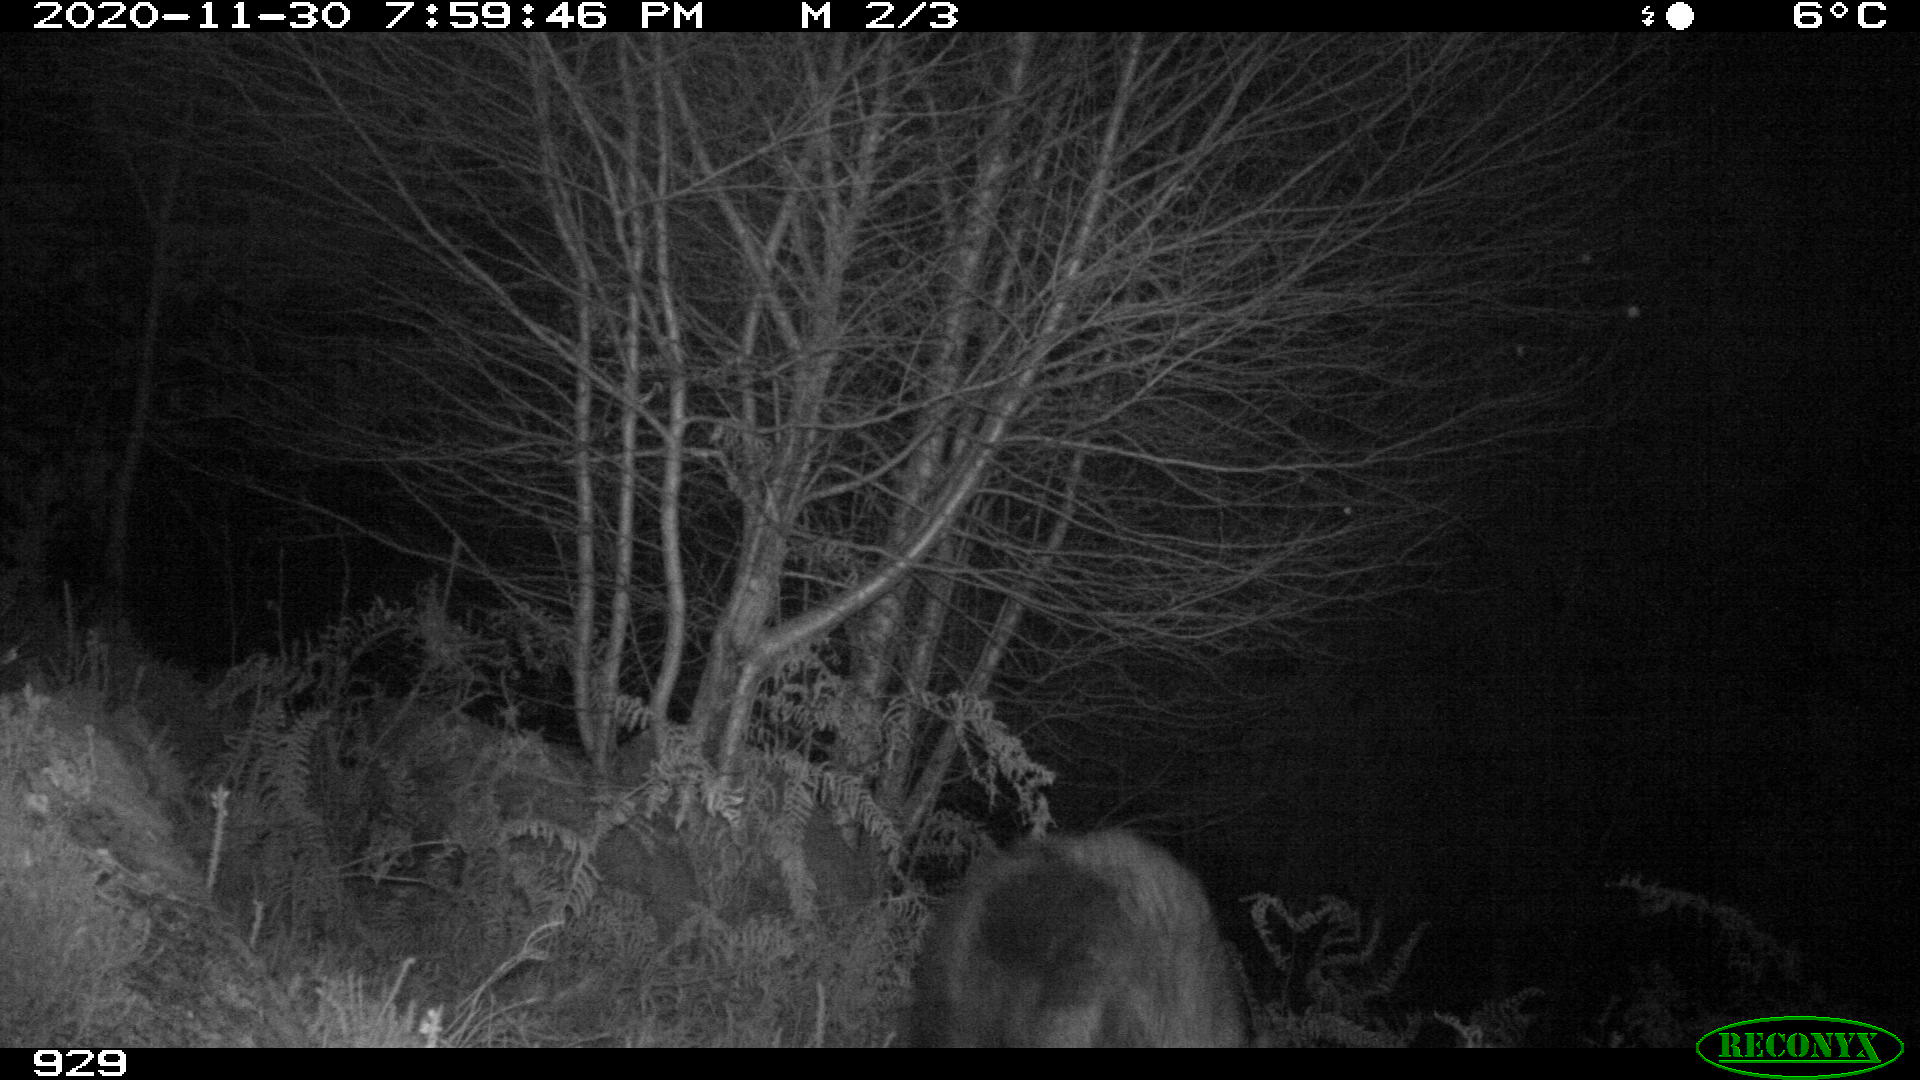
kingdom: Animalia
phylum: Chordata
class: Mammalia
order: Artiodactyla
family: Suidae
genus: Sus
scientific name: Sus scrofa
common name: Wild boar
